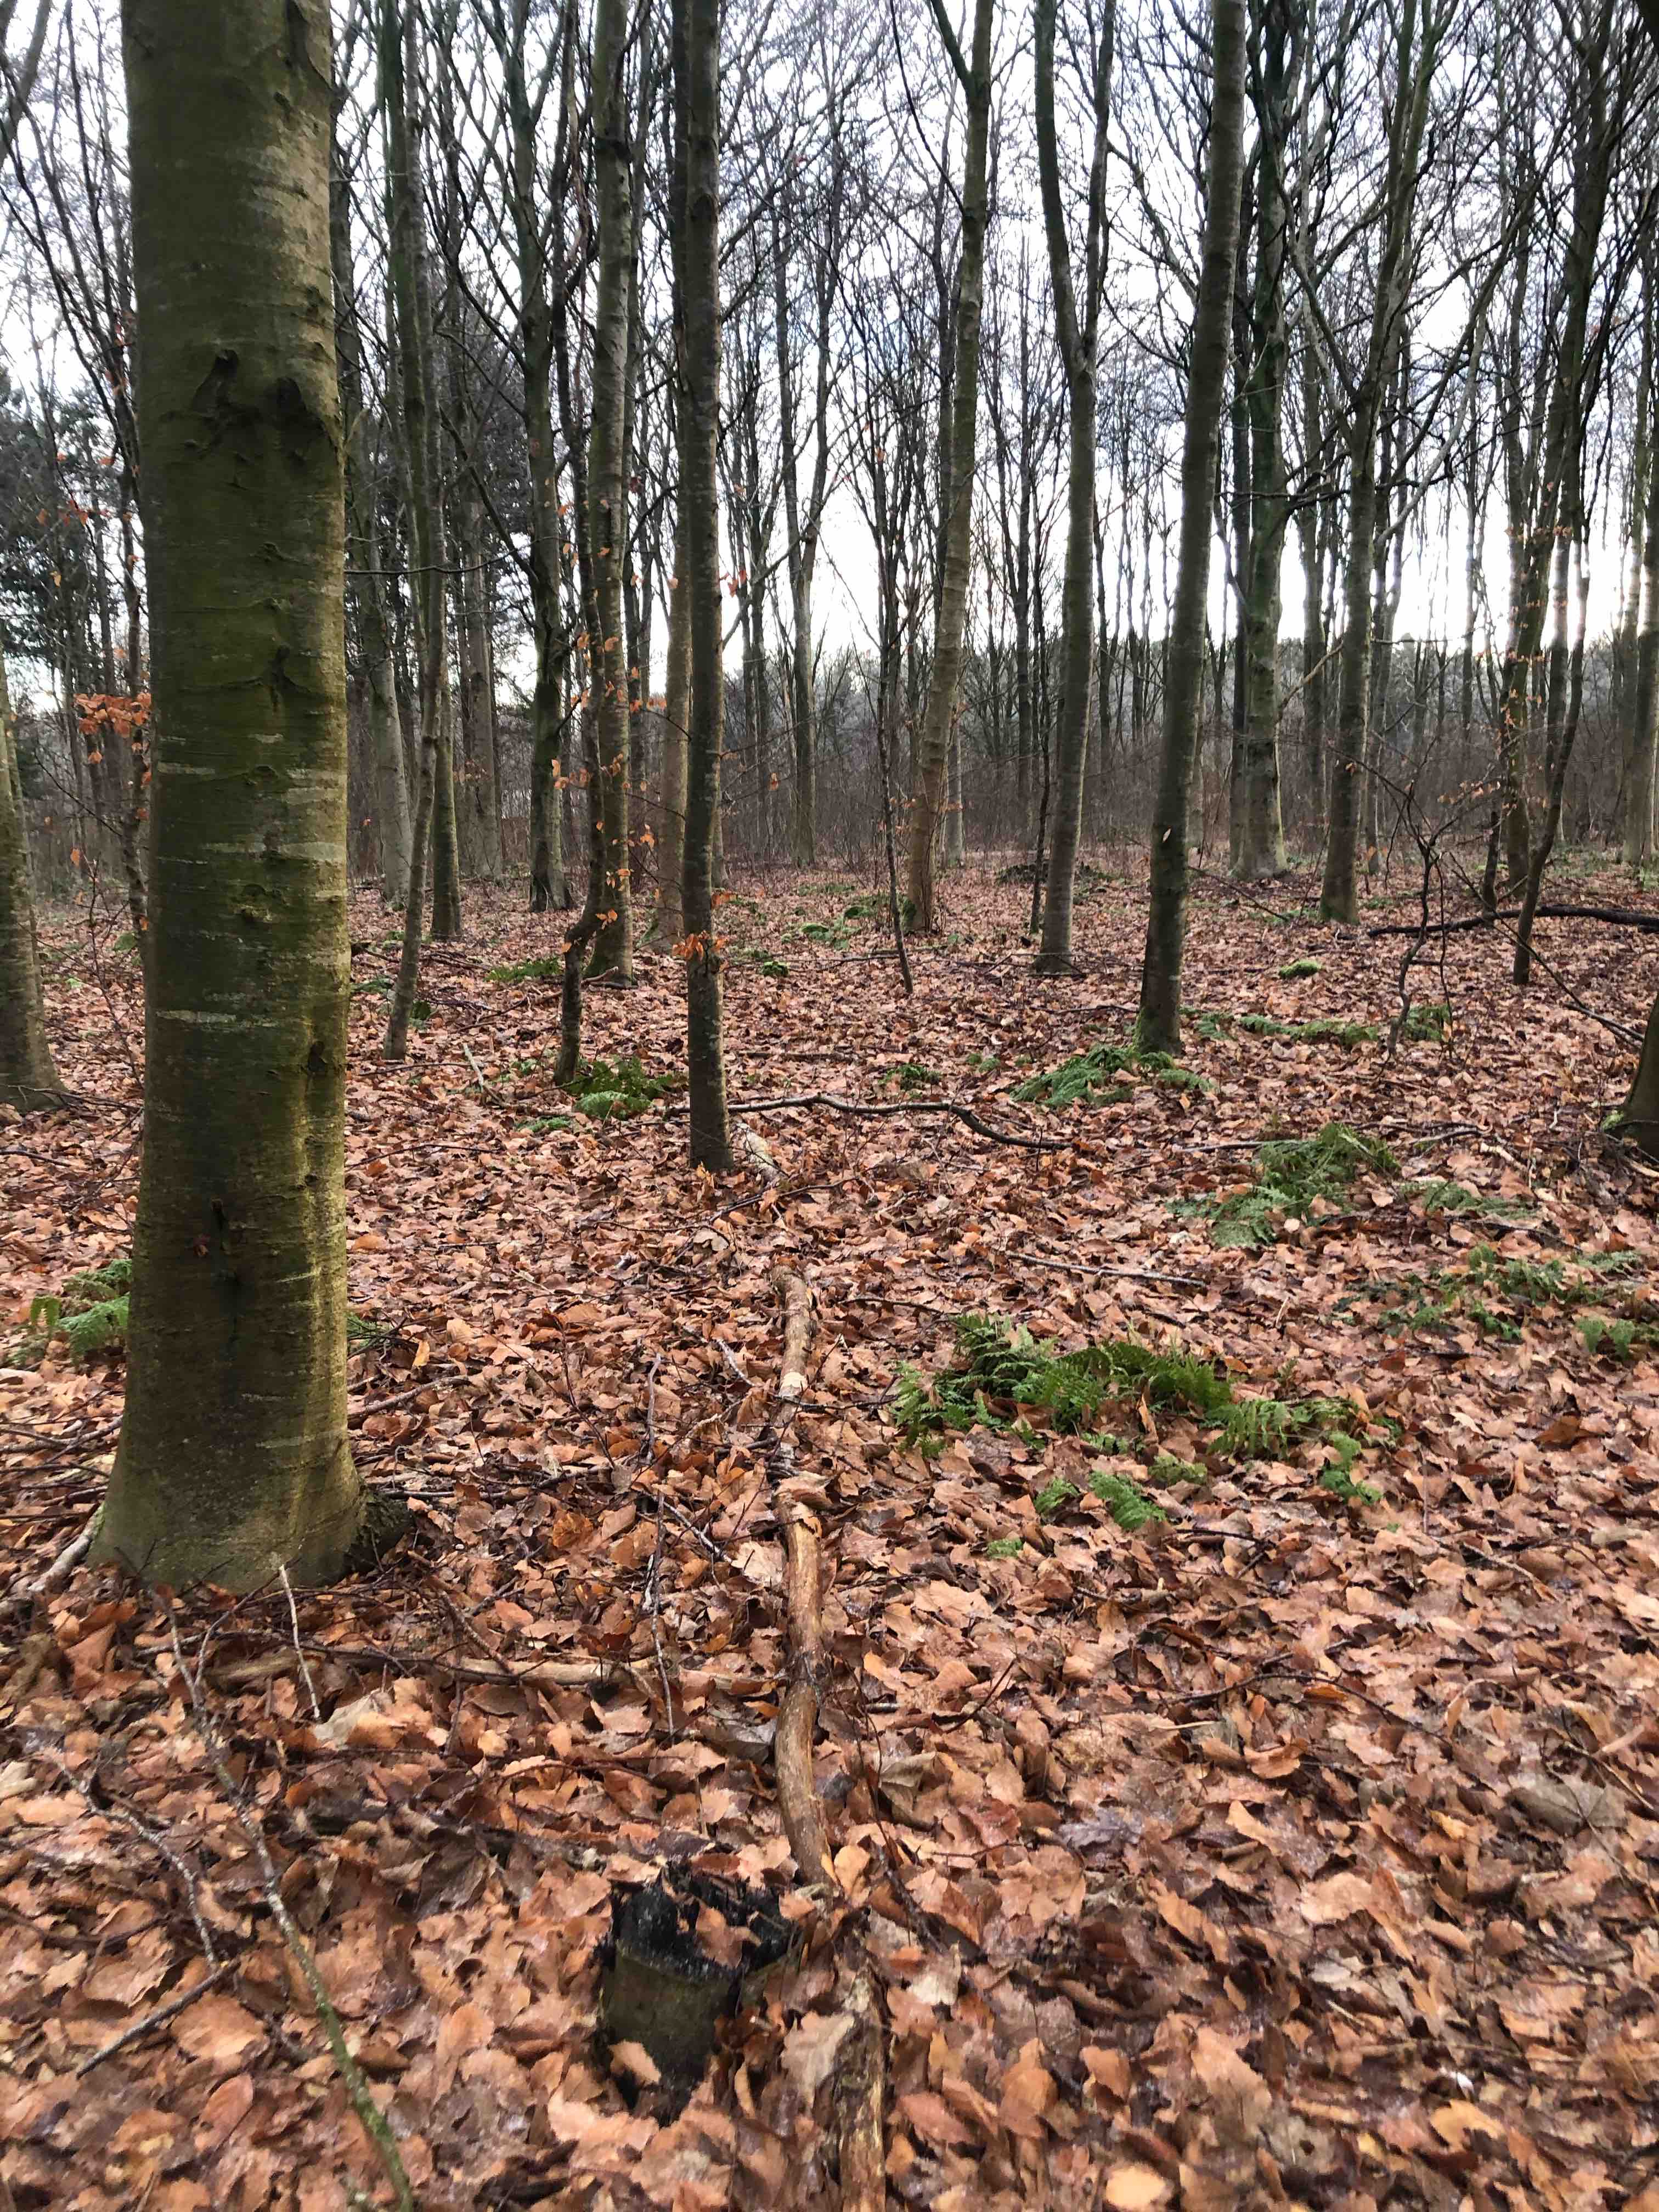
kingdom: Fungi
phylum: Ascomycota
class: Sordariomycetes
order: Xylariales
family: Xylariaceae
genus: Xylaria
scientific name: Xylaria hypoxylon
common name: grenet stødsvamp
